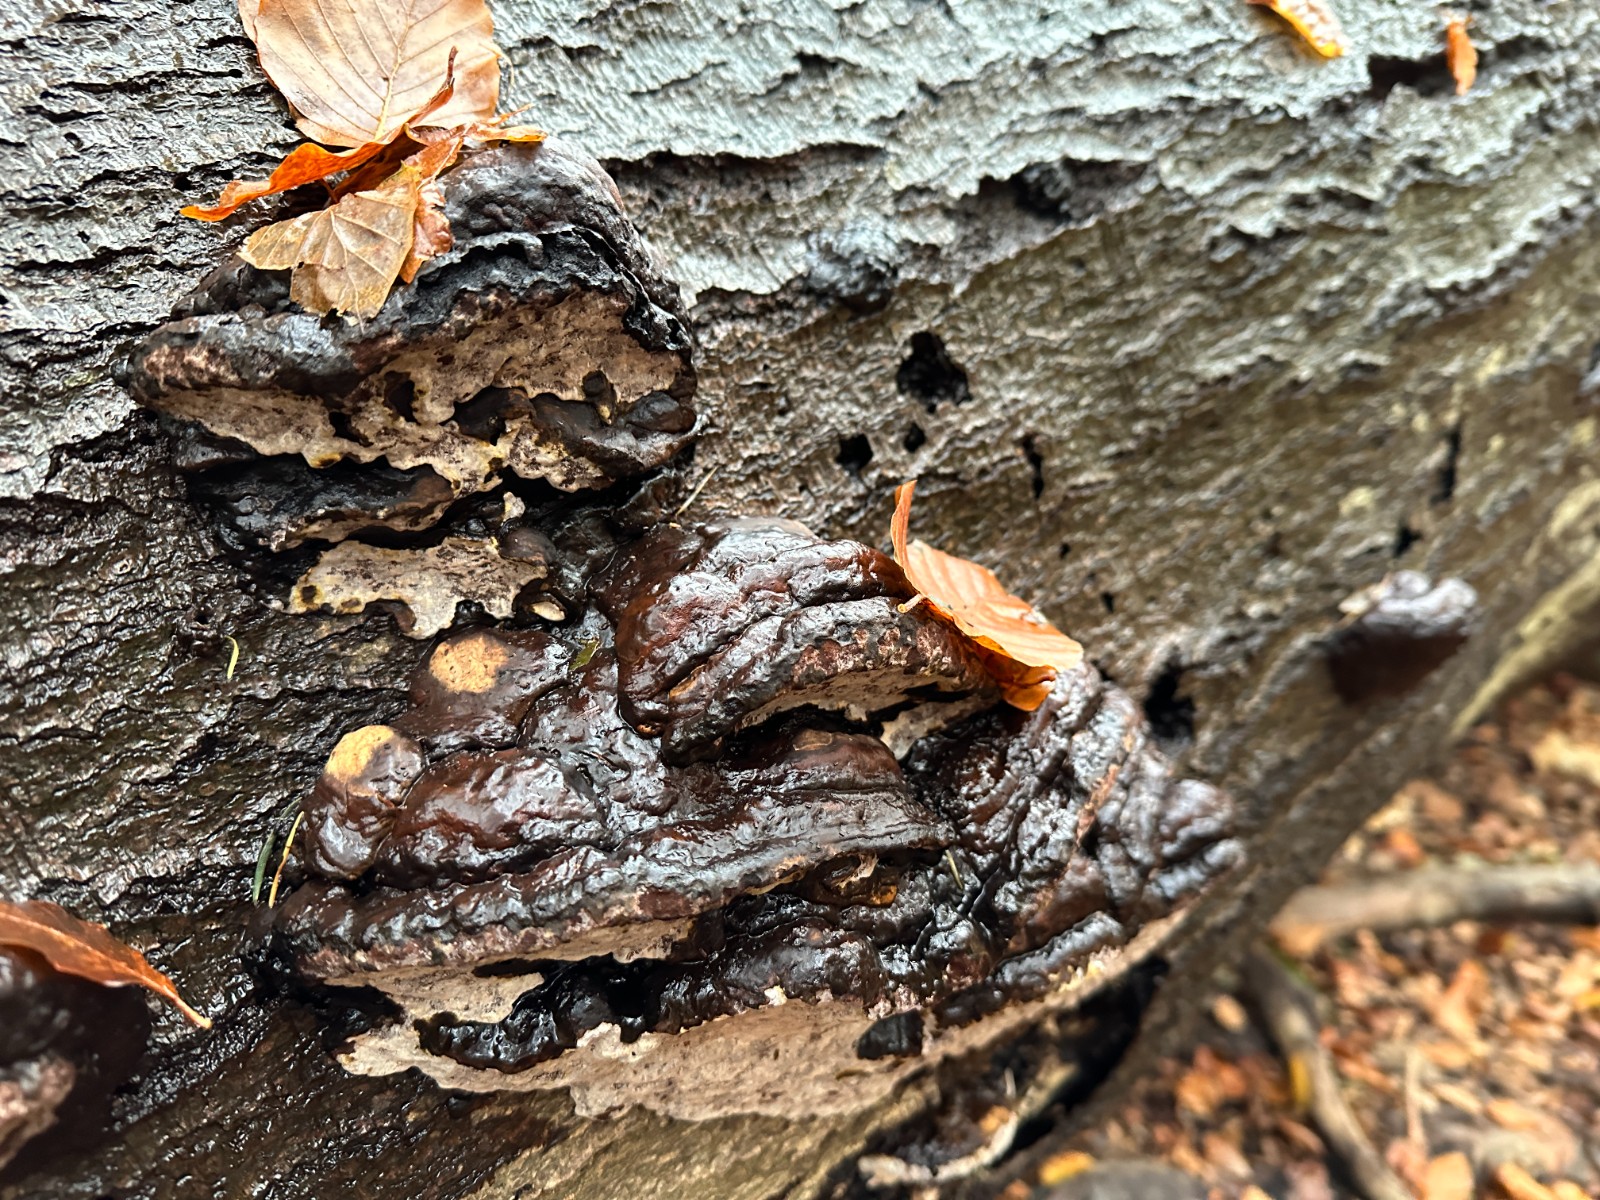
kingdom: Fungi
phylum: Basidiomycota
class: Agaricomycetes
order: Polyporales
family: Polyporaceae
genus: Fomes
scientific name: Fomes fomentarius
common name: tøndersvamp
